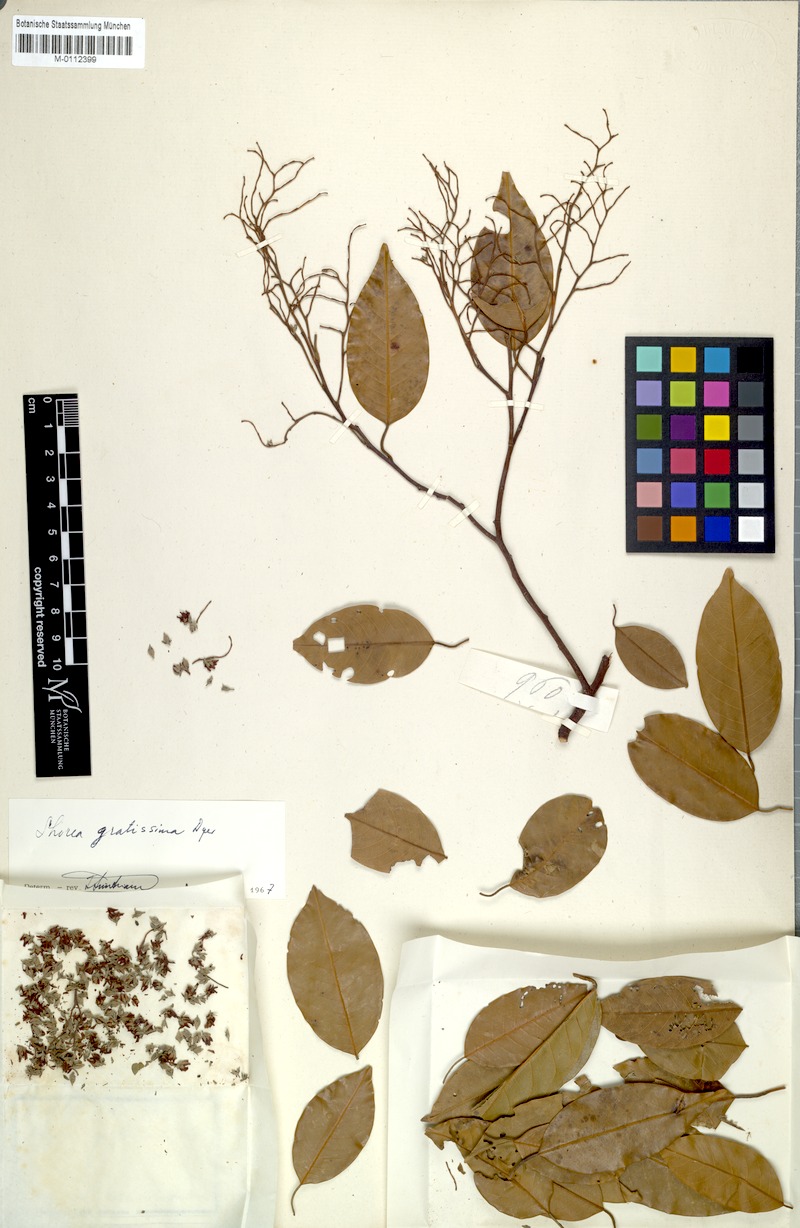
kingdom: Plantae
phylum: Tracheophyta
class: Magnoliopsida
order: Malvales
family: Dipterocarpaceae
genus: Anthoshorea
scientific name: Anthoshorea farinosa
